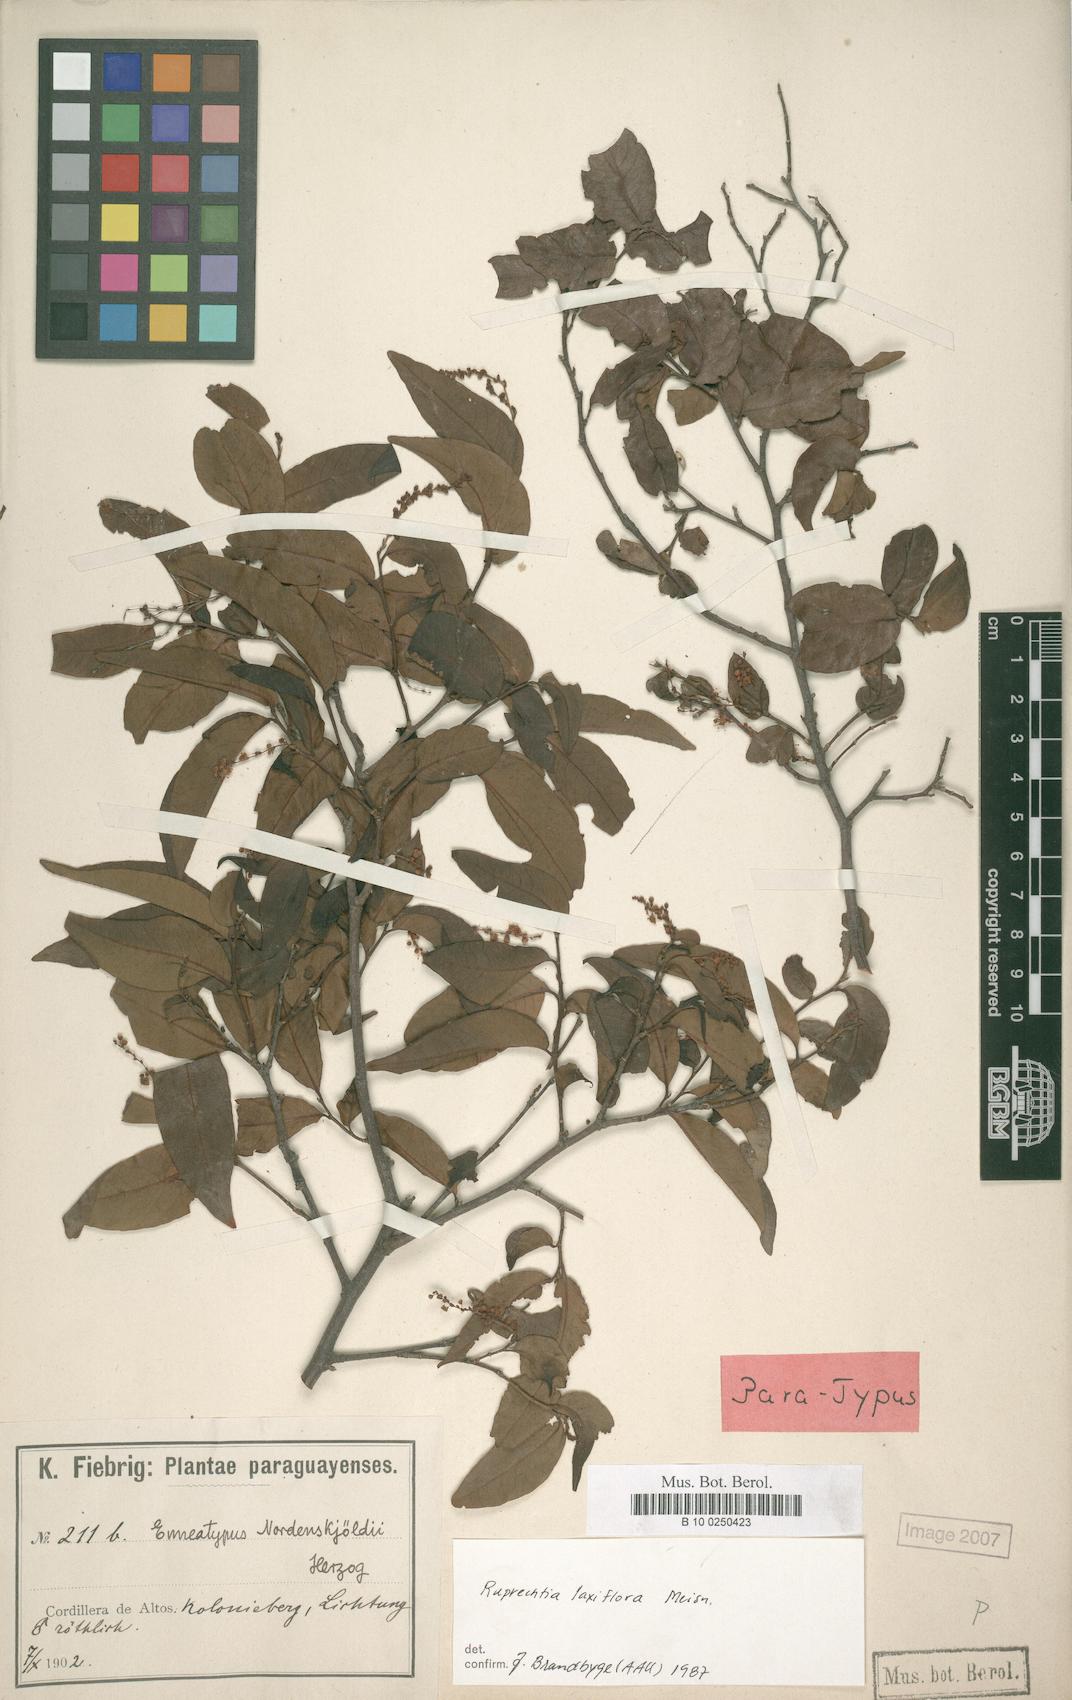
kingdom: Plantae
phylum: Tracheophyta
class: Magnoliopsida
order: Caryophyllales
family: Polygonaceae
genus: Ruprechtia
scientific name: Ruprechtia laxiflora
